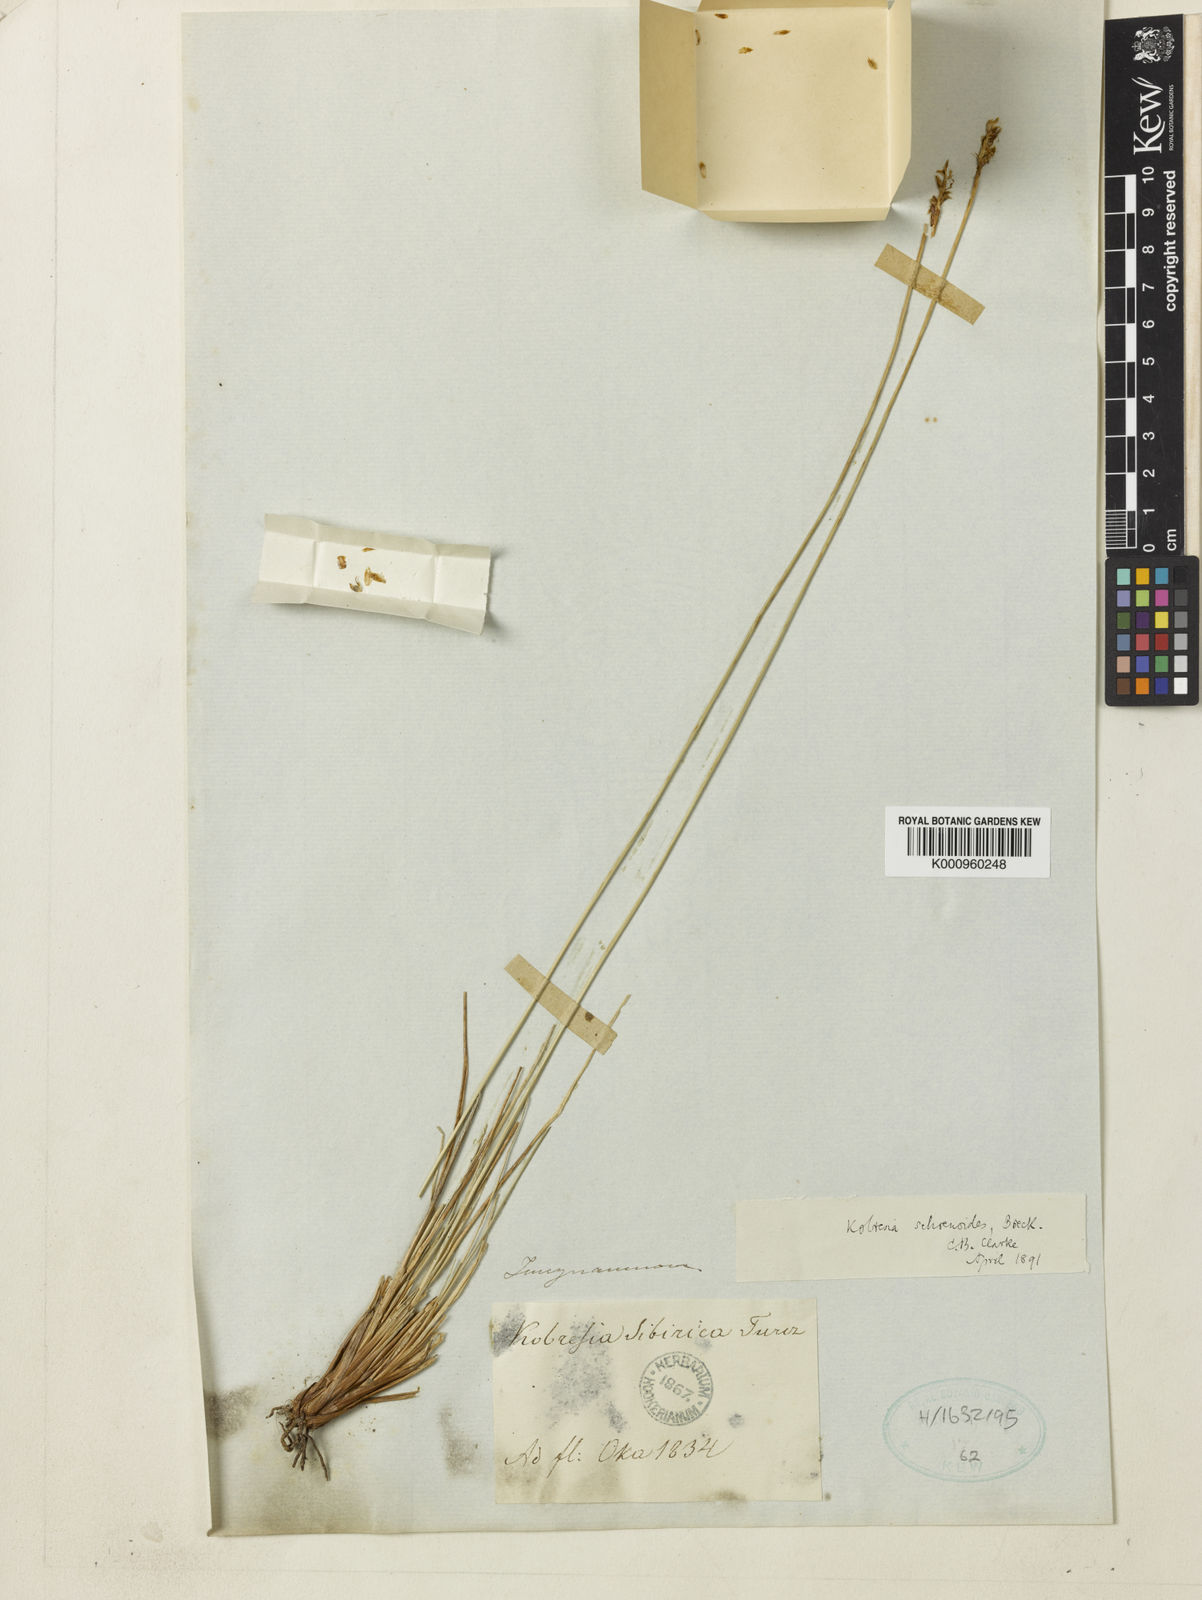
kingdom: Plantae
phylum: Tracheophyta
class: Liliopsida
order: Poales
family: Cyperaceae
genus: Carex
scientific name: Carex
